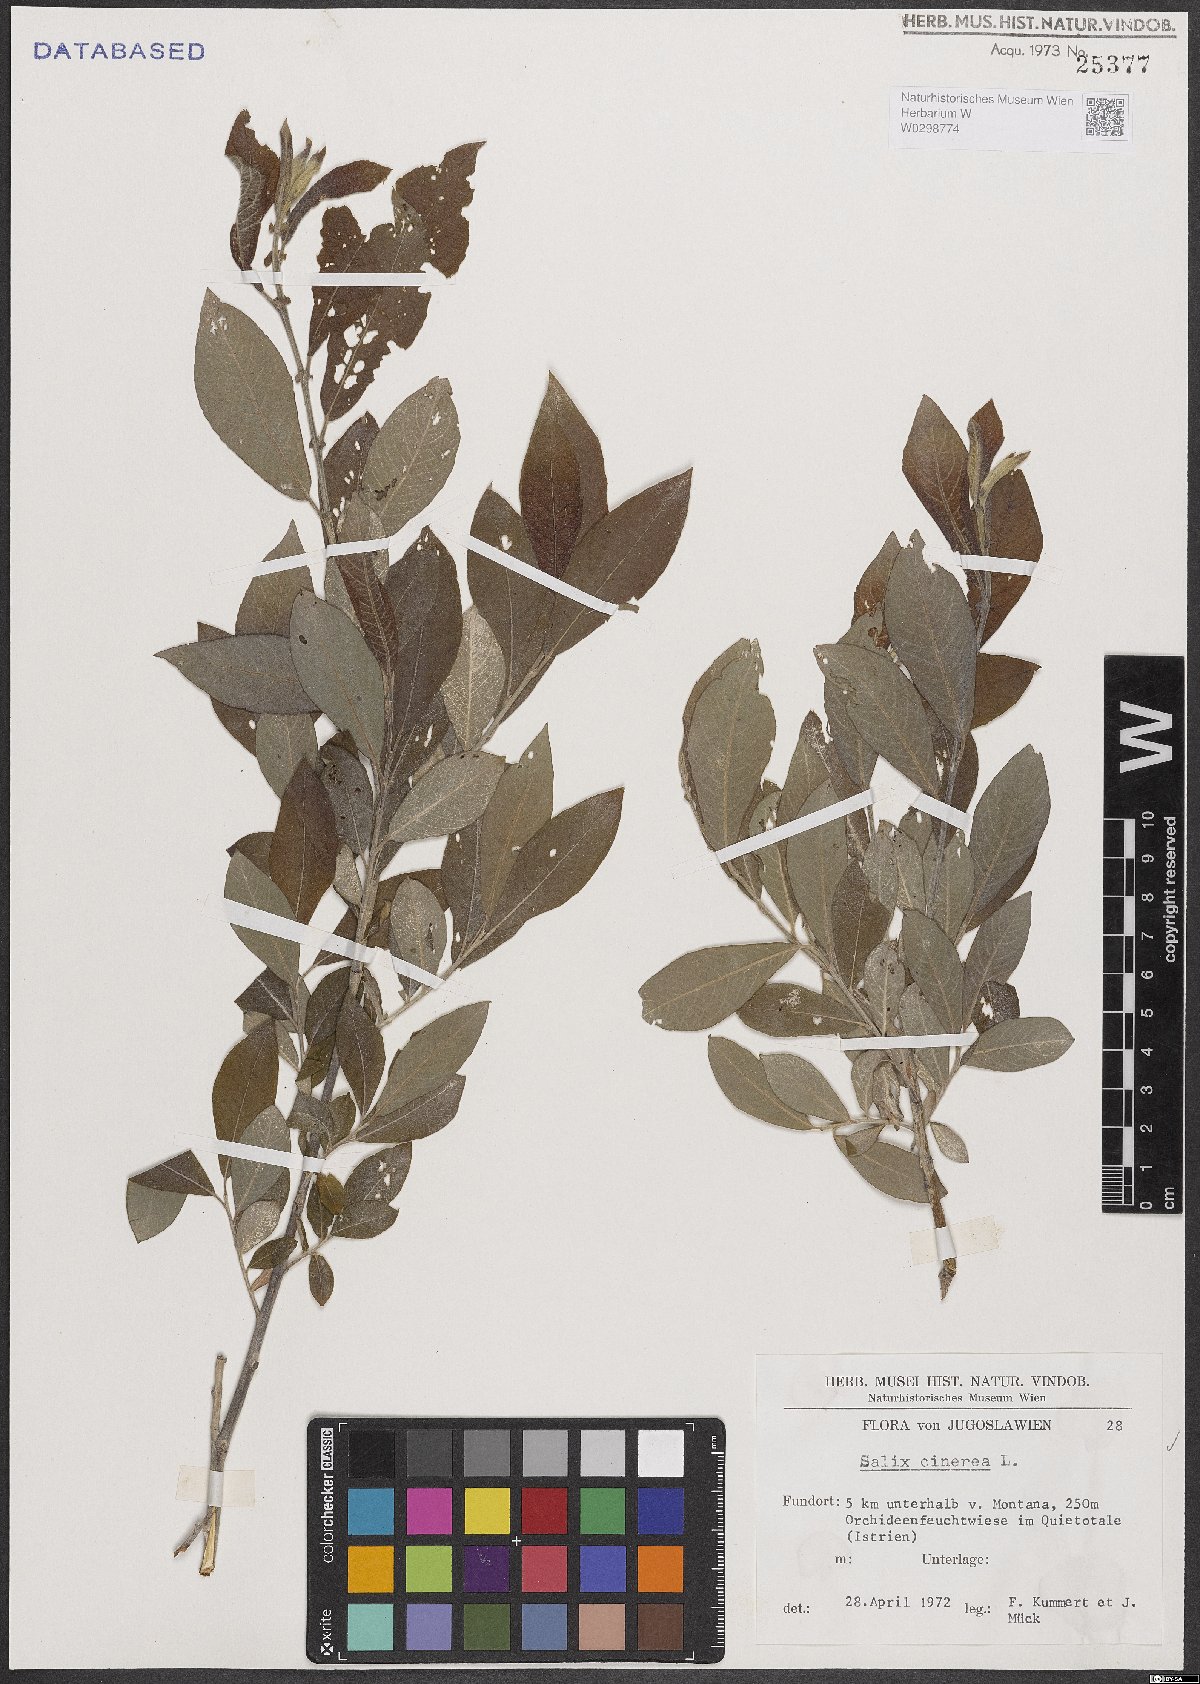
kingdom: Plantae
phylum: Tracheophyta
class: Magnoliopsida
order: Malpighiales
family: Salicaceae
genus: Salix
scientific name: Salix cinerea
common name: Common sallow
